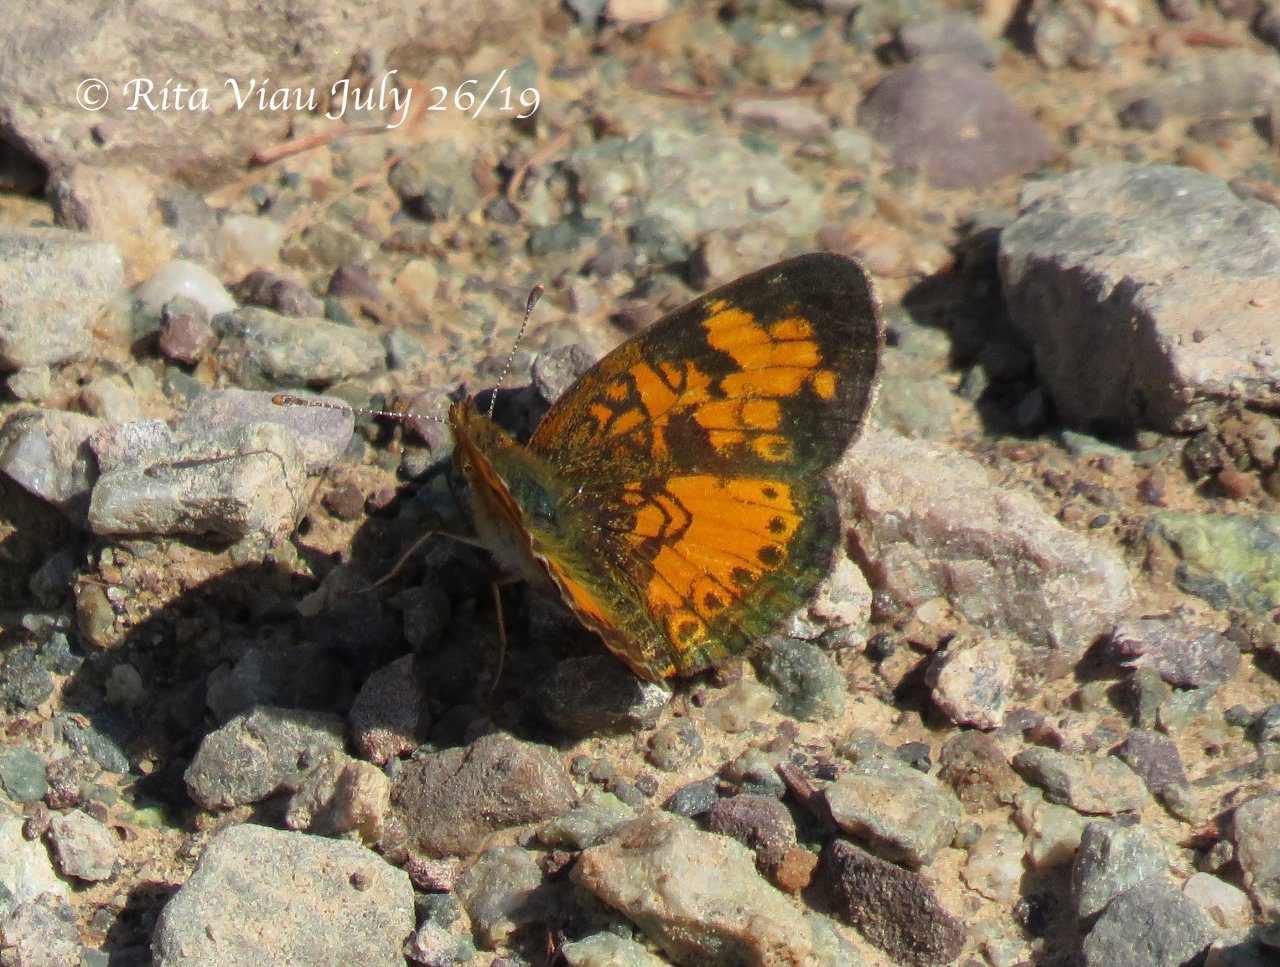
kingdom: Animalia
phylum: Arthropoda
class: Insecta
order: Lepidoptera
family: Nymphalidae
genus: Phyciodes
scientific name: Phyciodes tharos
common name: Northern Crescent
